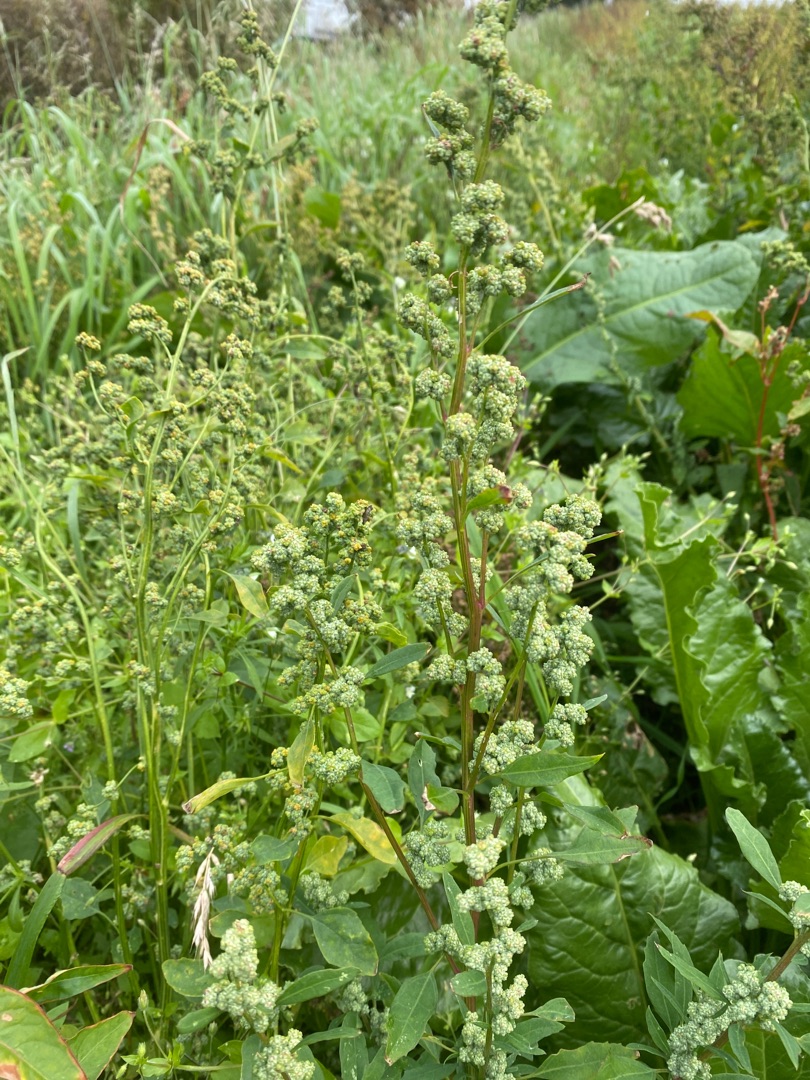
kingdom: Plantae
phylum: Tracheophyta
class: Magnoliopsida
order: Caryophyllales
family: Amaranthaceae
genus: Chenopodium
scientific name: Chenopodium album
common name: Hvidmelet gåsefod
